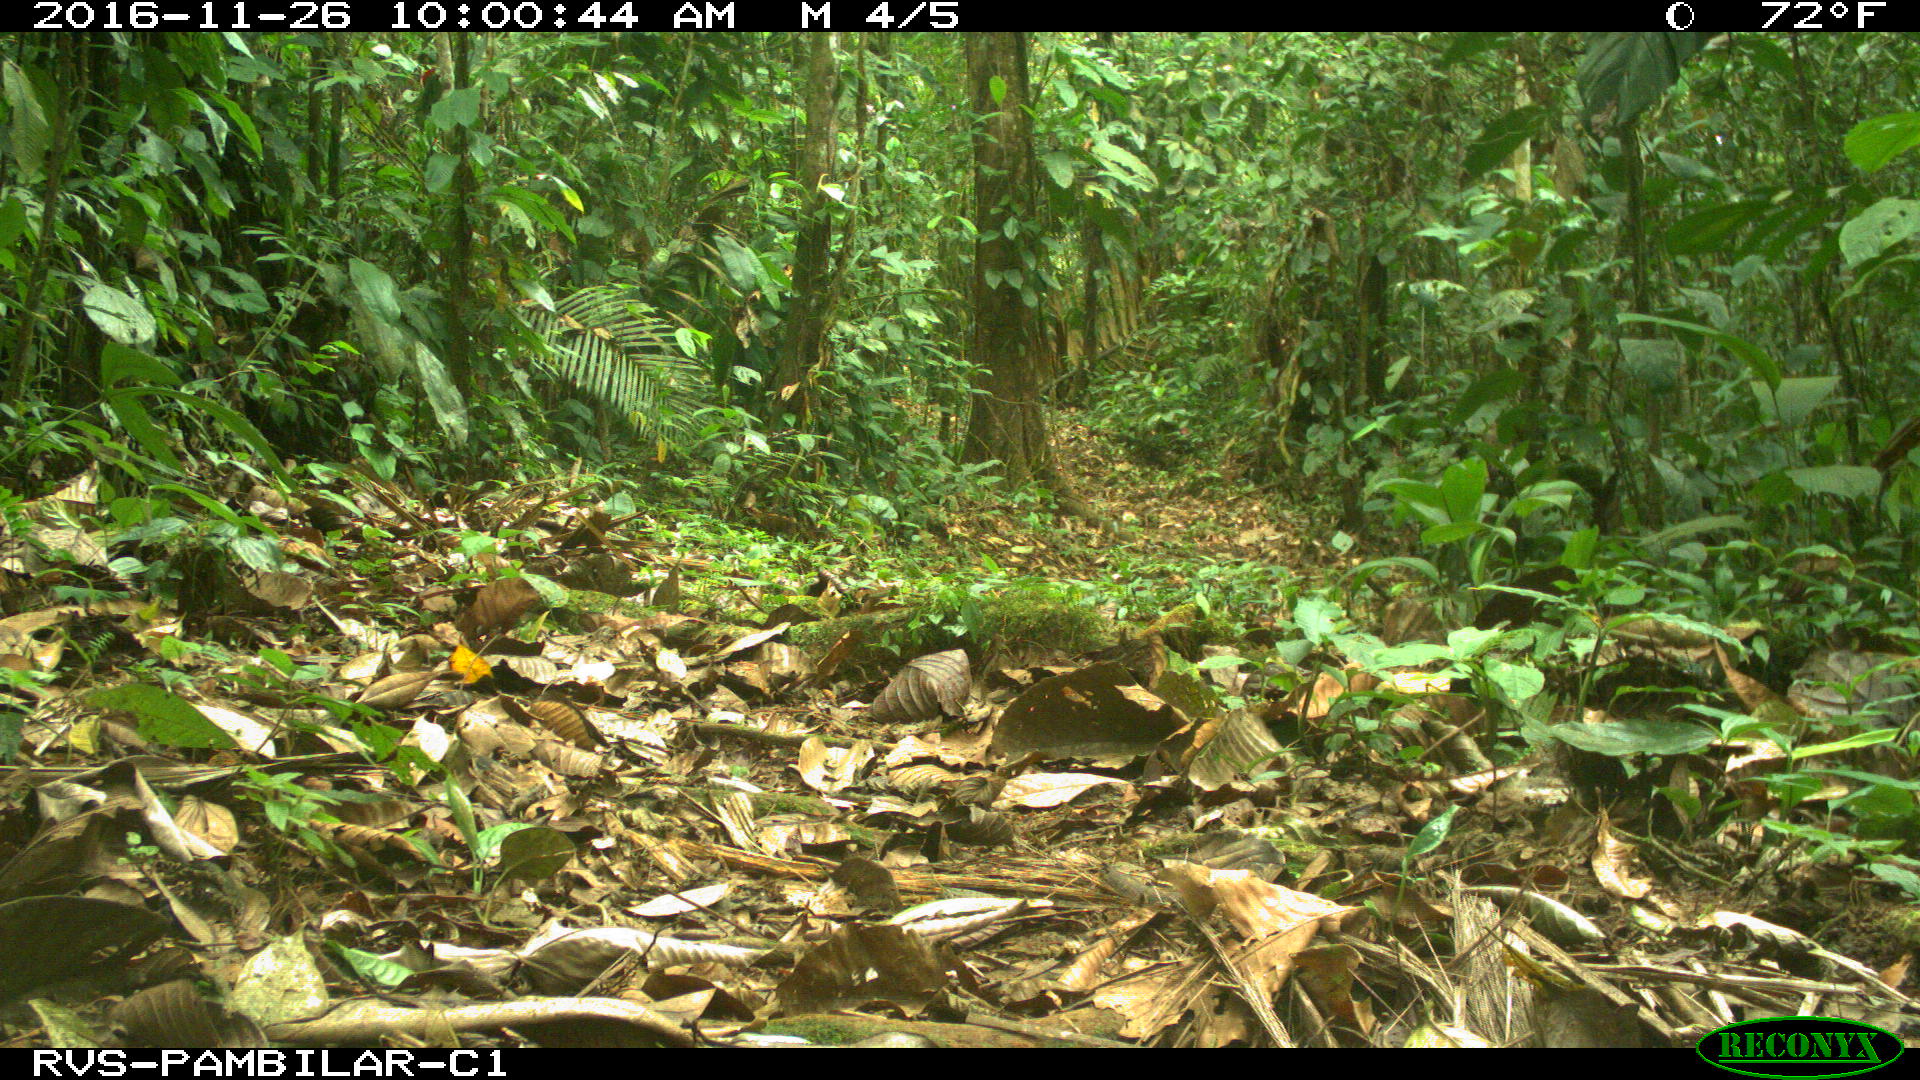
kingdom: Animalia
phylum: Chordata
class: Mammalia
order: Rodentia
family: Dasyproctidae
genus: Dasyprocta
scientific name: Dasyprocta punctata
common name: Central american agouti
